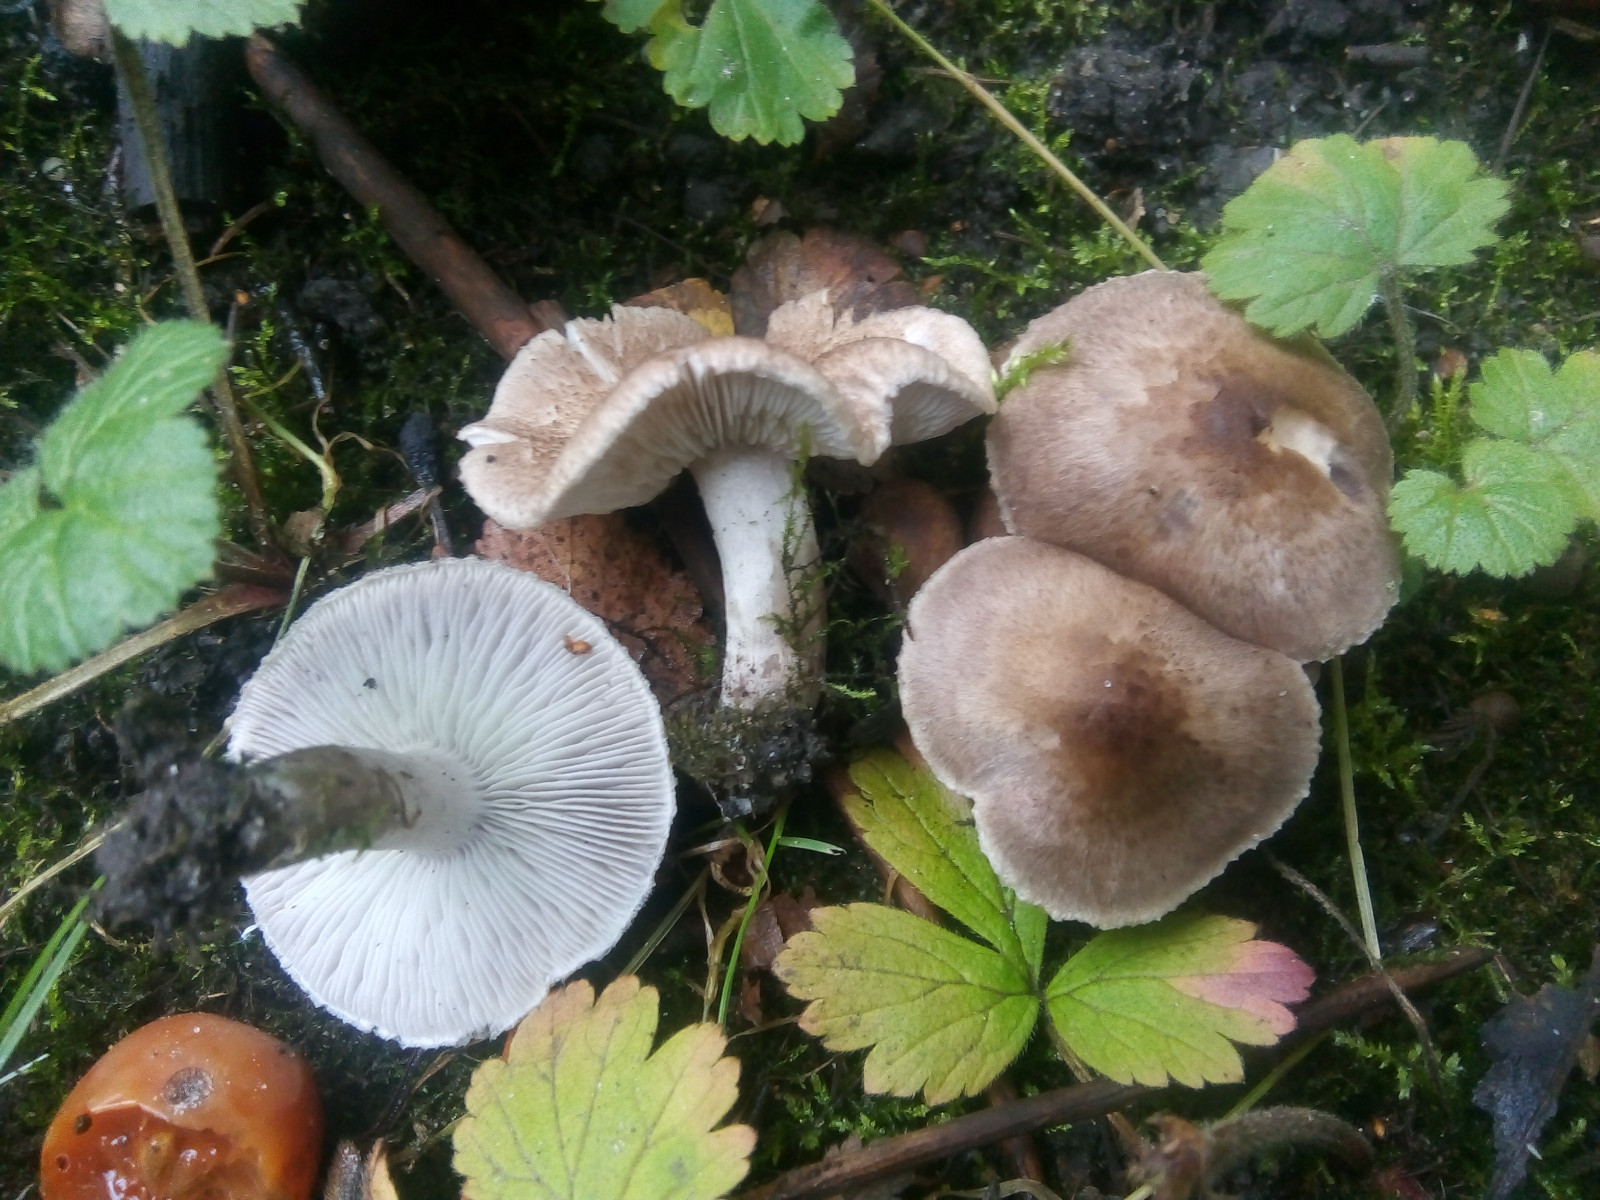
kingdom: Fungi
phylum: Basidiomycota
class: Agaricomycetes
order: Agaricales
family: Tricholomataceae
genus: Tricholoma
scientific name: Tricholoma argyraceum
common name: slør-ridderhat
